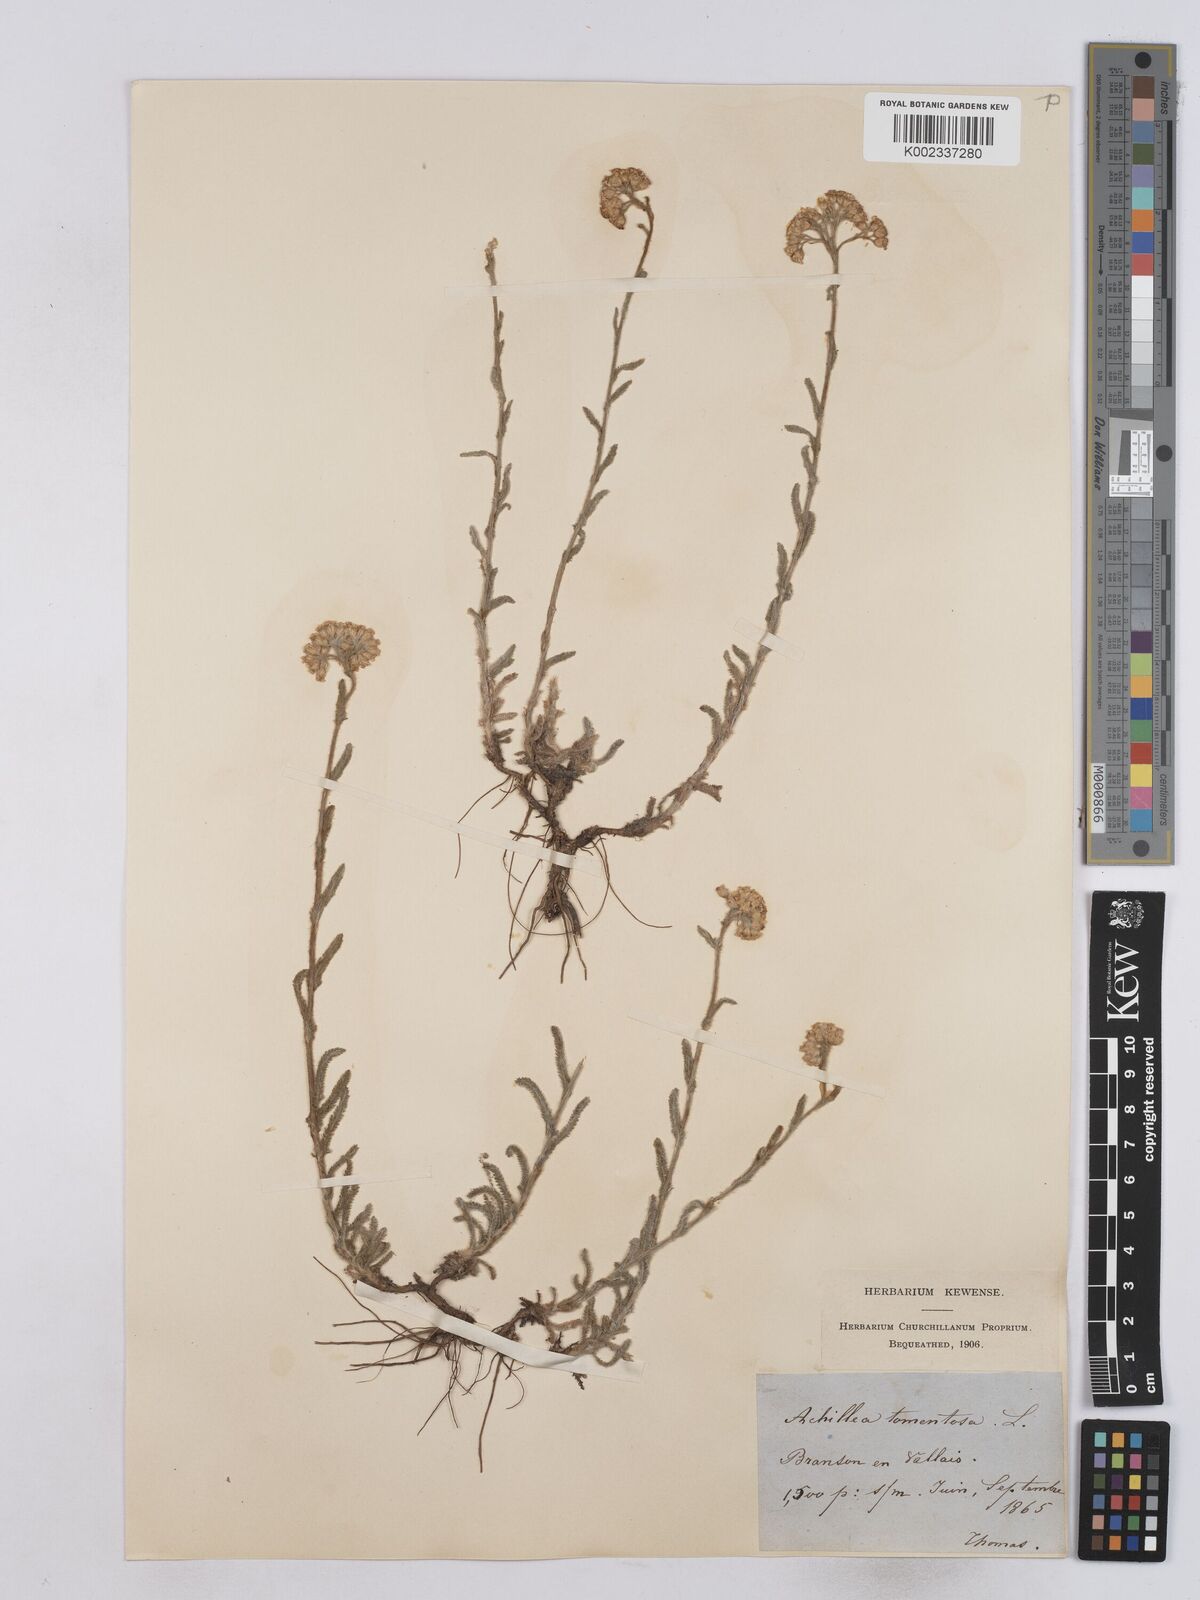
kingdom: Plantae
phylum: Tracheophyta
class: Magnoliopsida
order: Asterales
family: Asteraceae
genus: Achillea
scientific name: Achillea tomentosa
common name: Yellow milfoil
